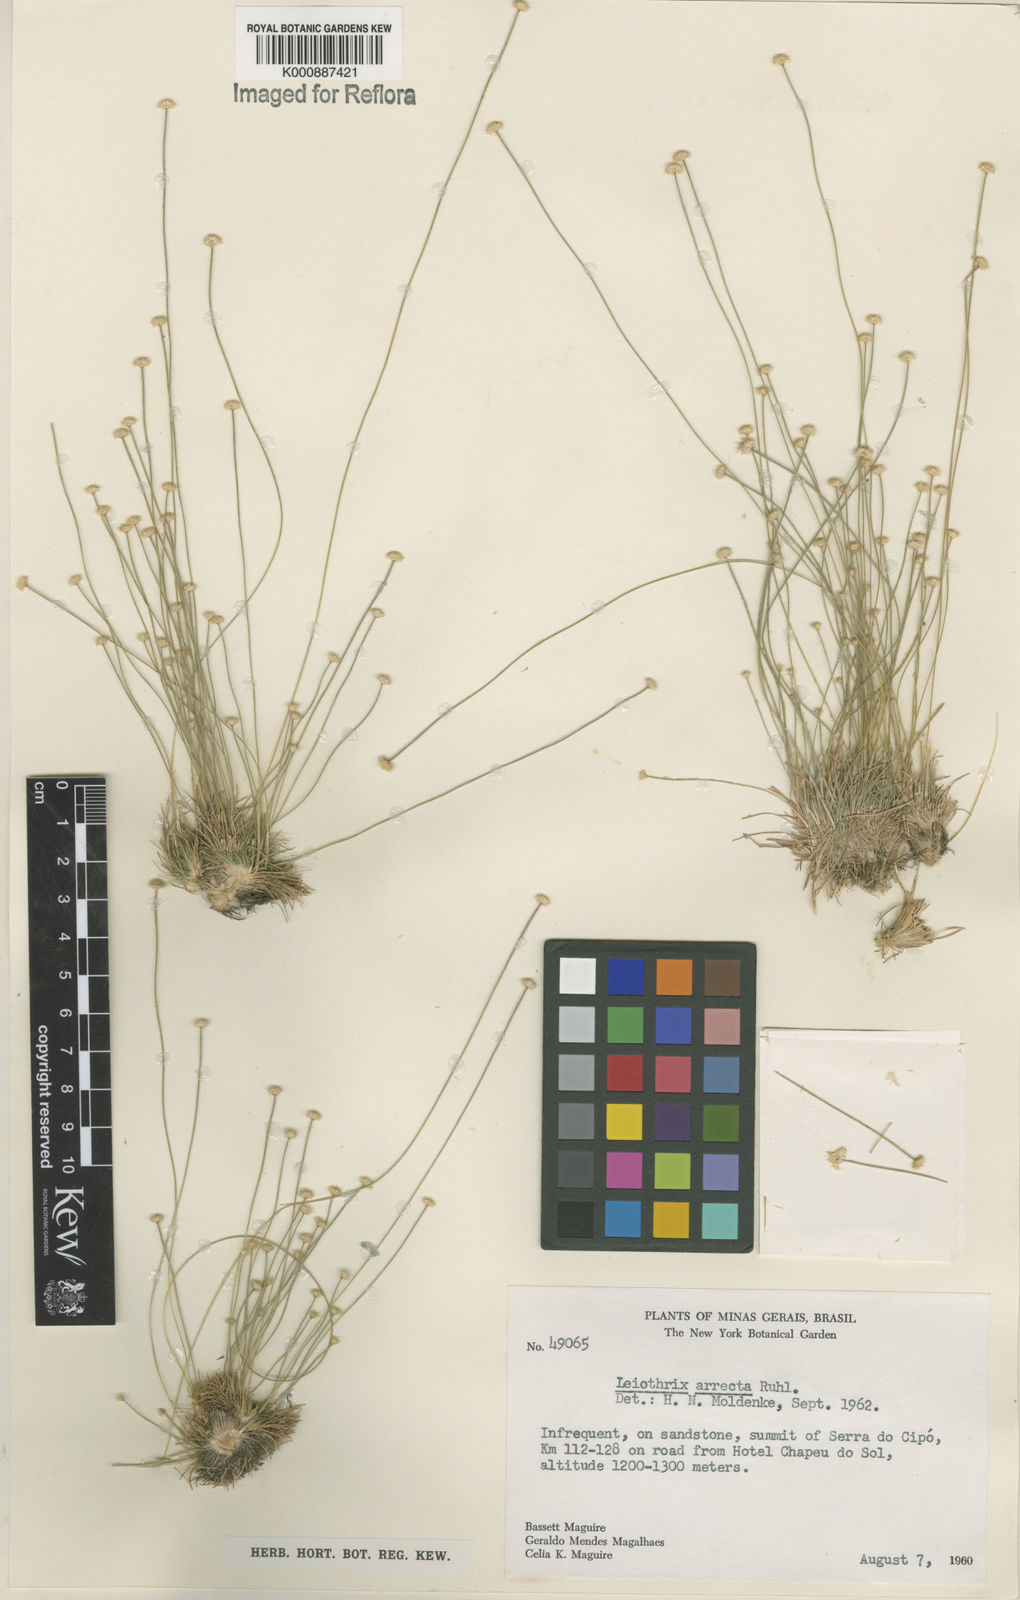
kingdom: Plantae
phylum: Tracheophyta
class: Liliopsida
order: Poales
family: Eriocaulaceae
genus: Leiothrix
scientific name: Leiothrix arrecta
